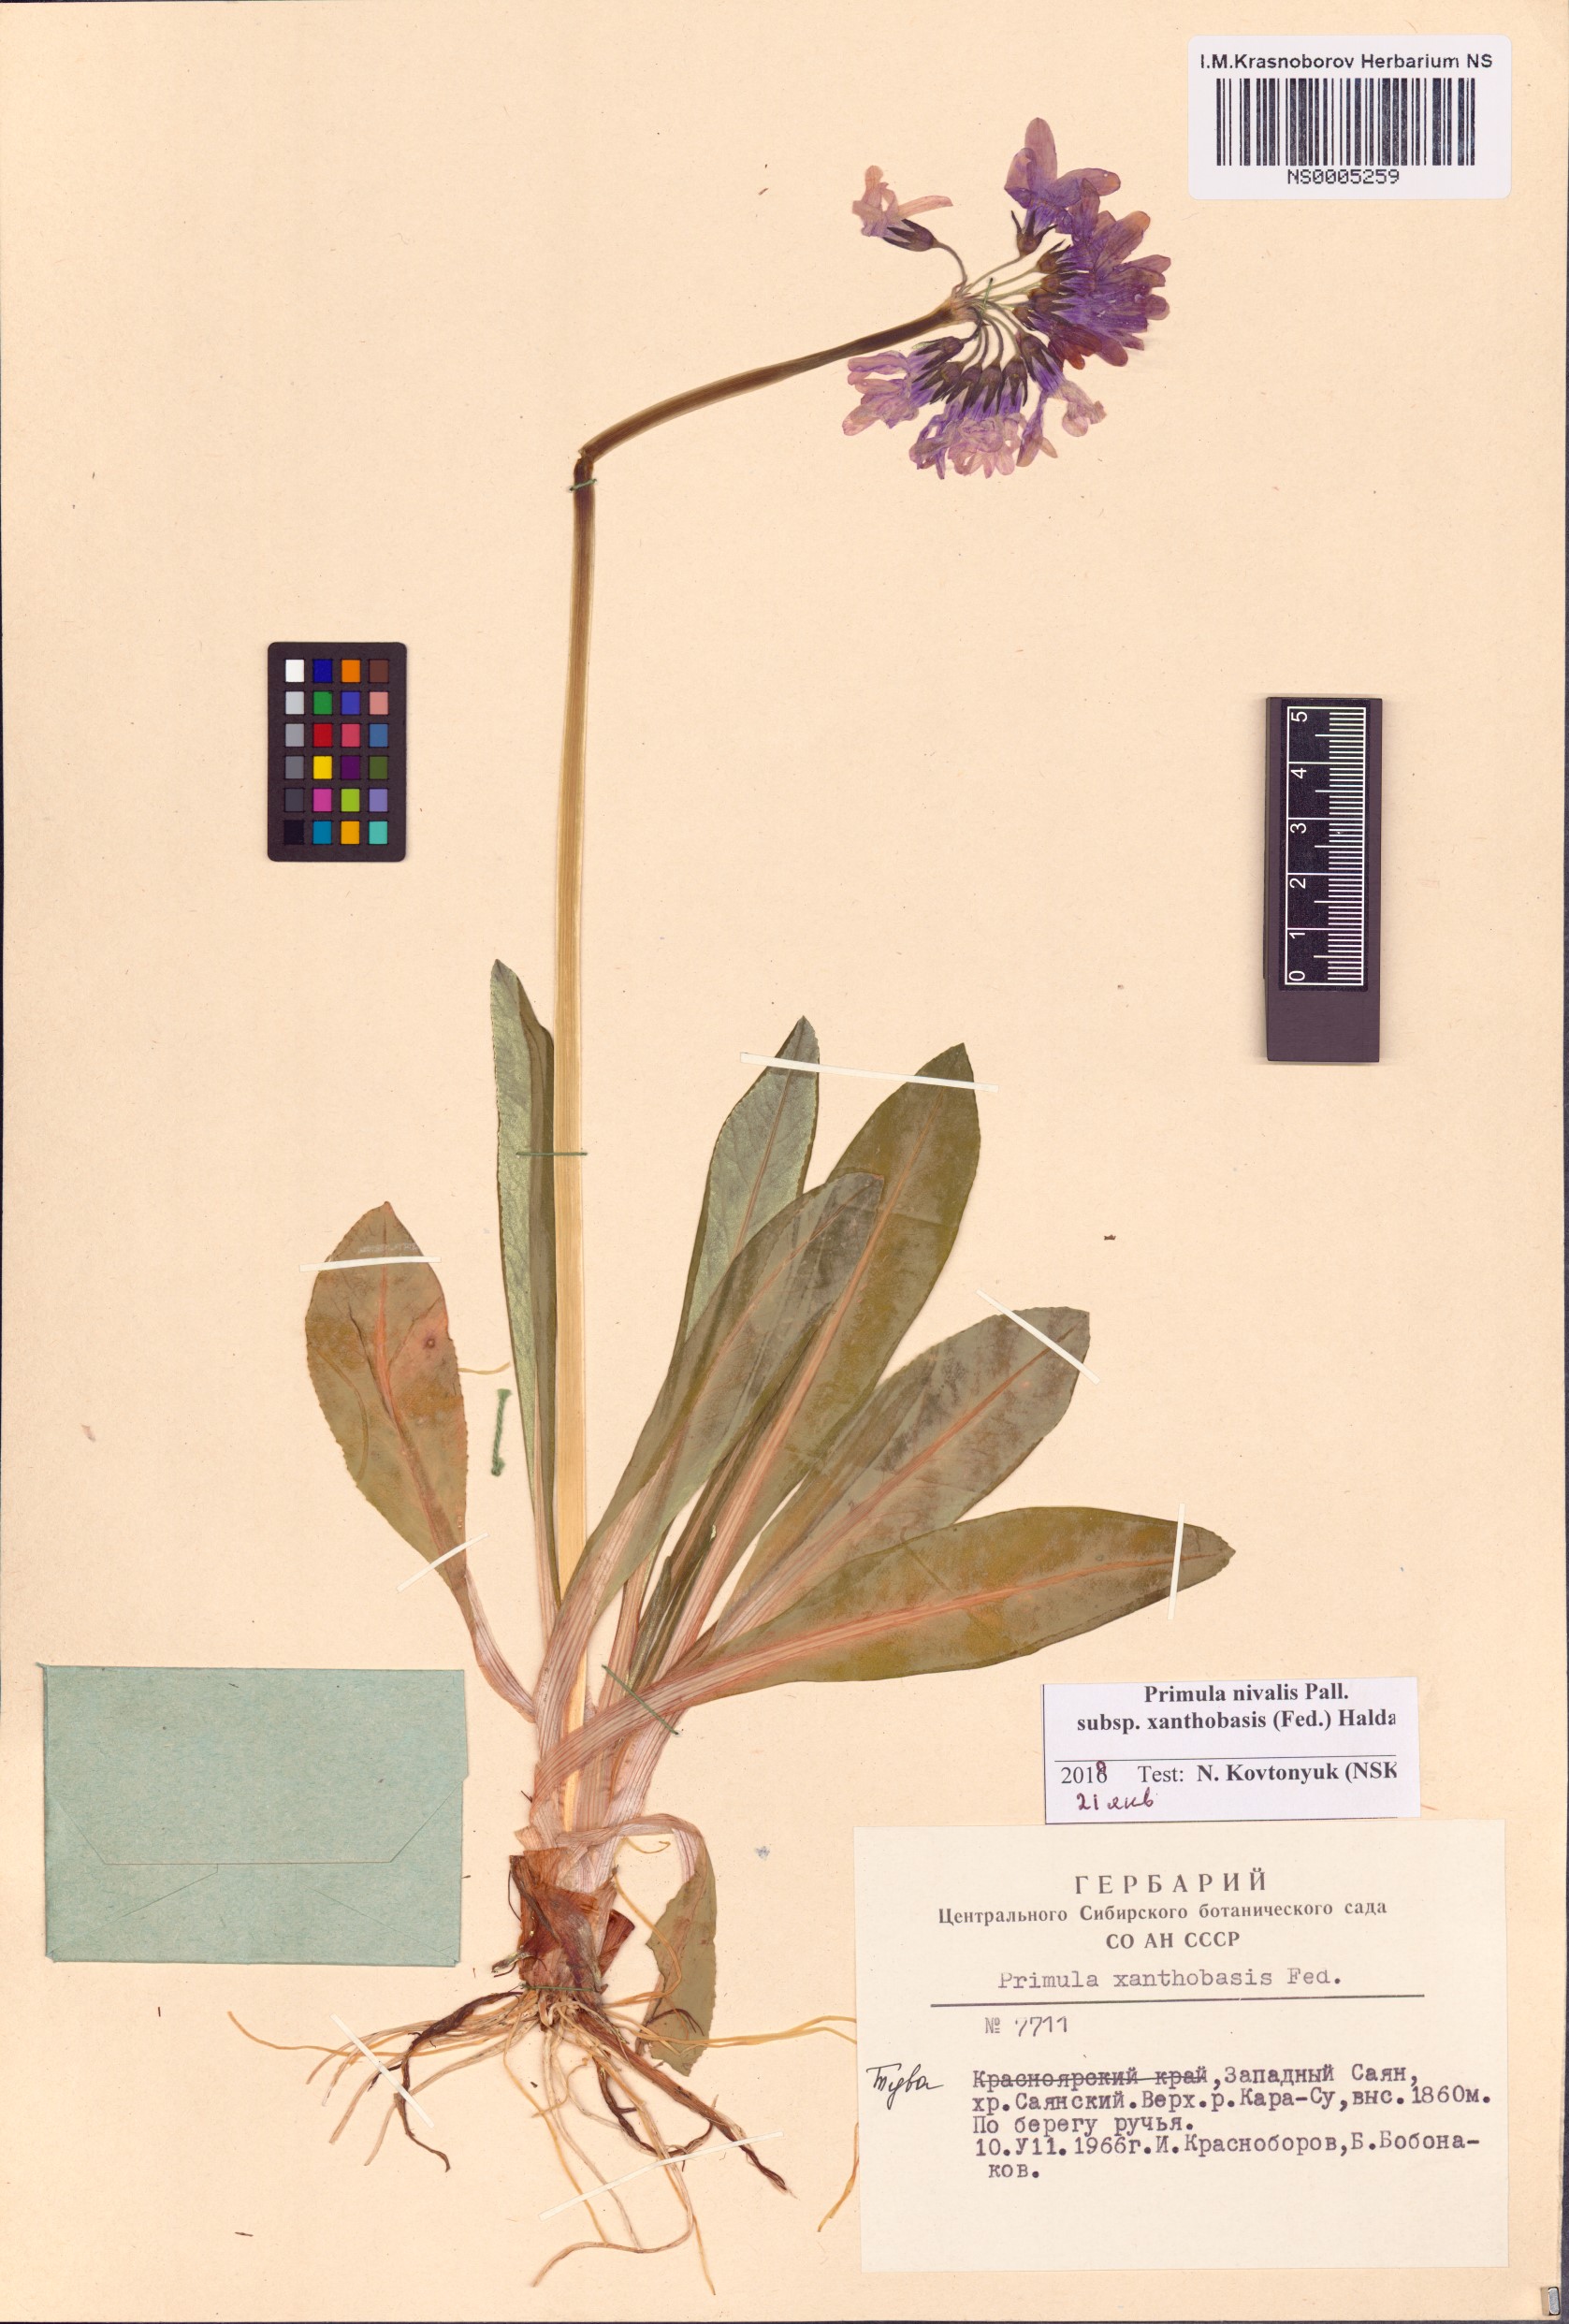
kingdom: Plantae
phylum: Tracheophyta
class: Magnoliopsida
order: Ericales
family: Primulaceae
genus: Primula
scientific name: Primula nivalis
